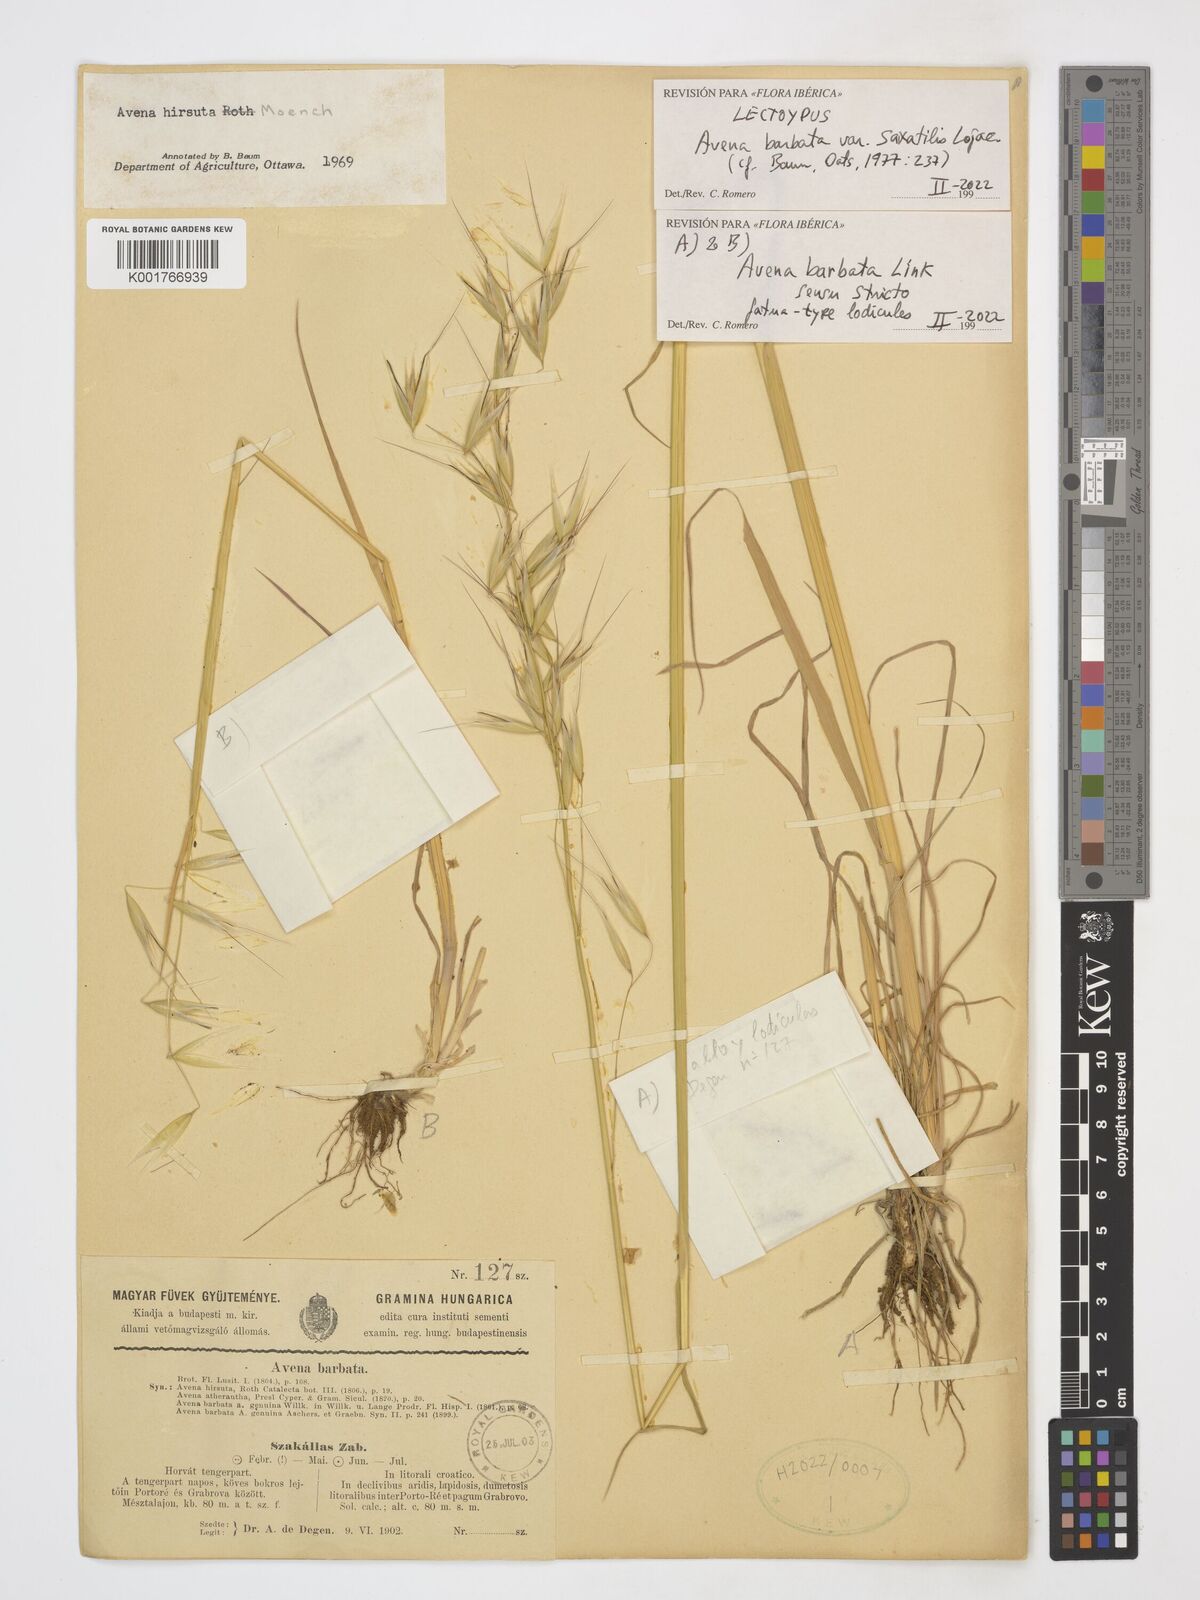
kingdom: Plantae
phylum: Tracheophyta
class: Liliopsida
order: Poales
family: Poaceae
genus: Avena
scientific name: Avena barbata
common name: Slender oat
